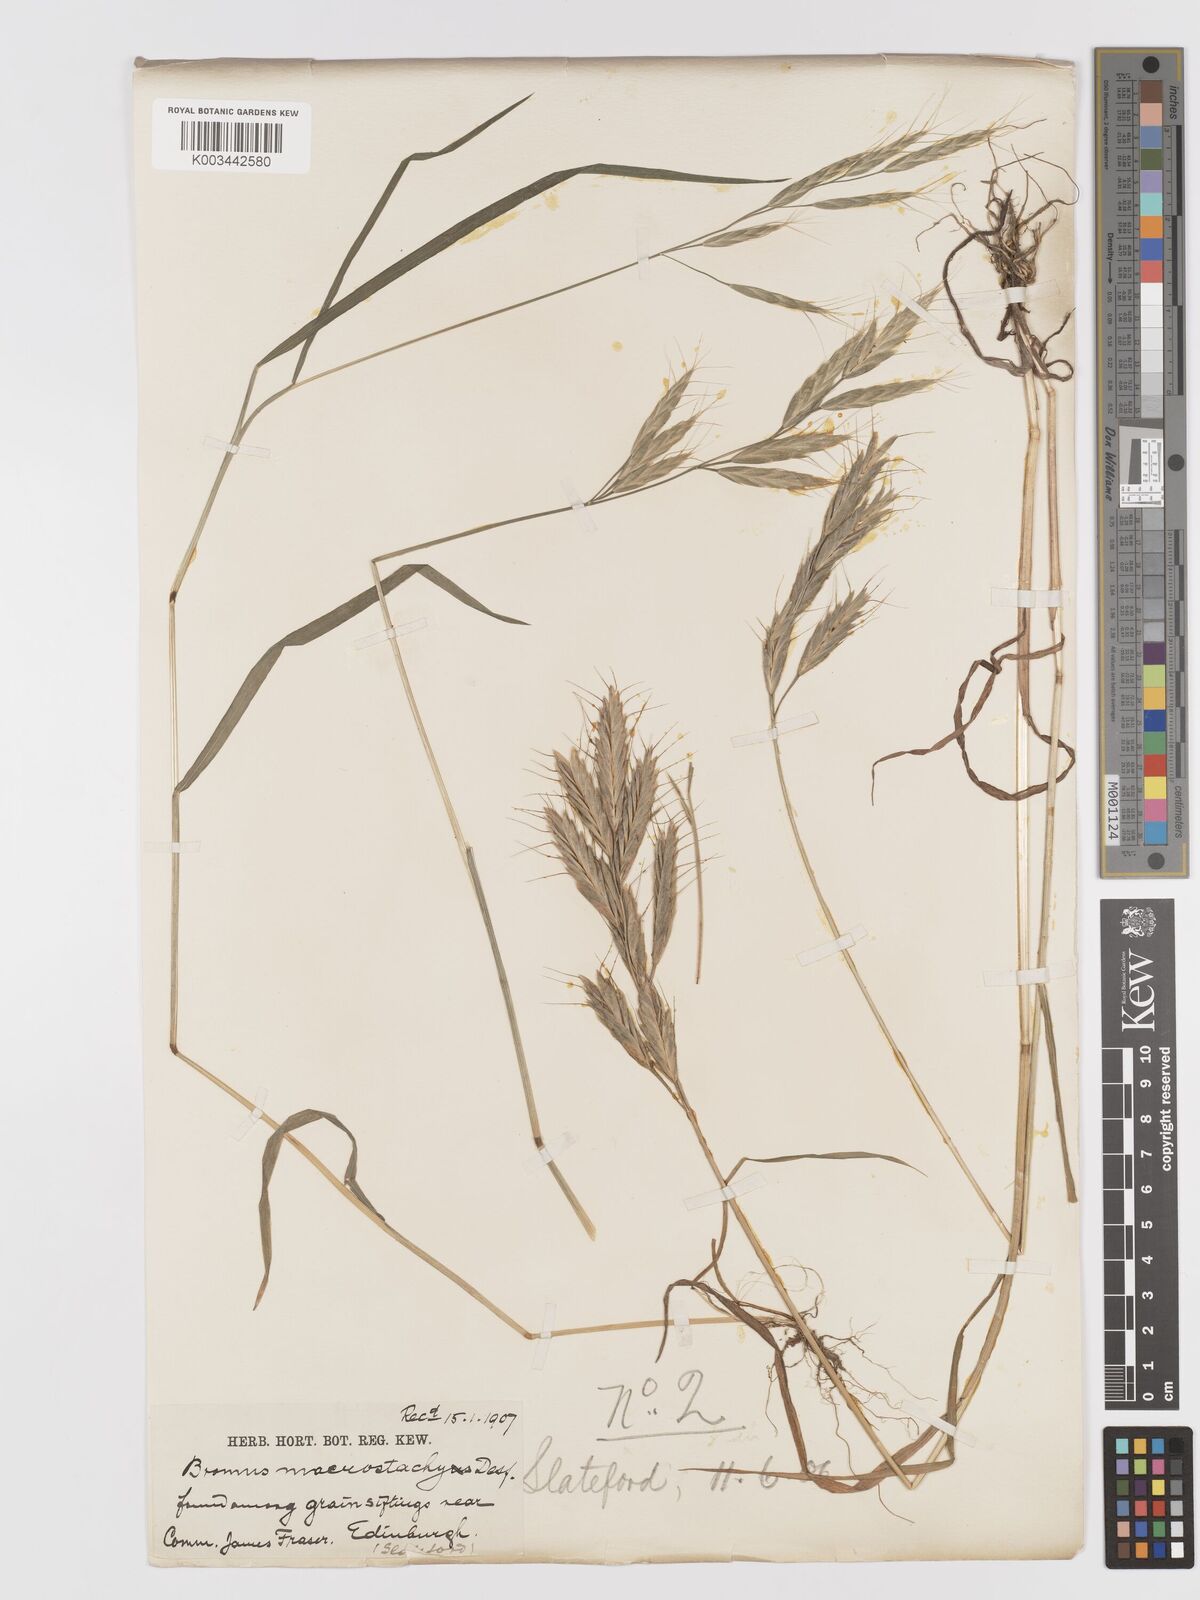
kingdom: Plantae
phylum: Tracheophyta
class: Liliopsida
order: Poales
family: Poaceae
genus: Bromus
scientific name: Bromus lanceolatus
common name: Mediterranean brome
